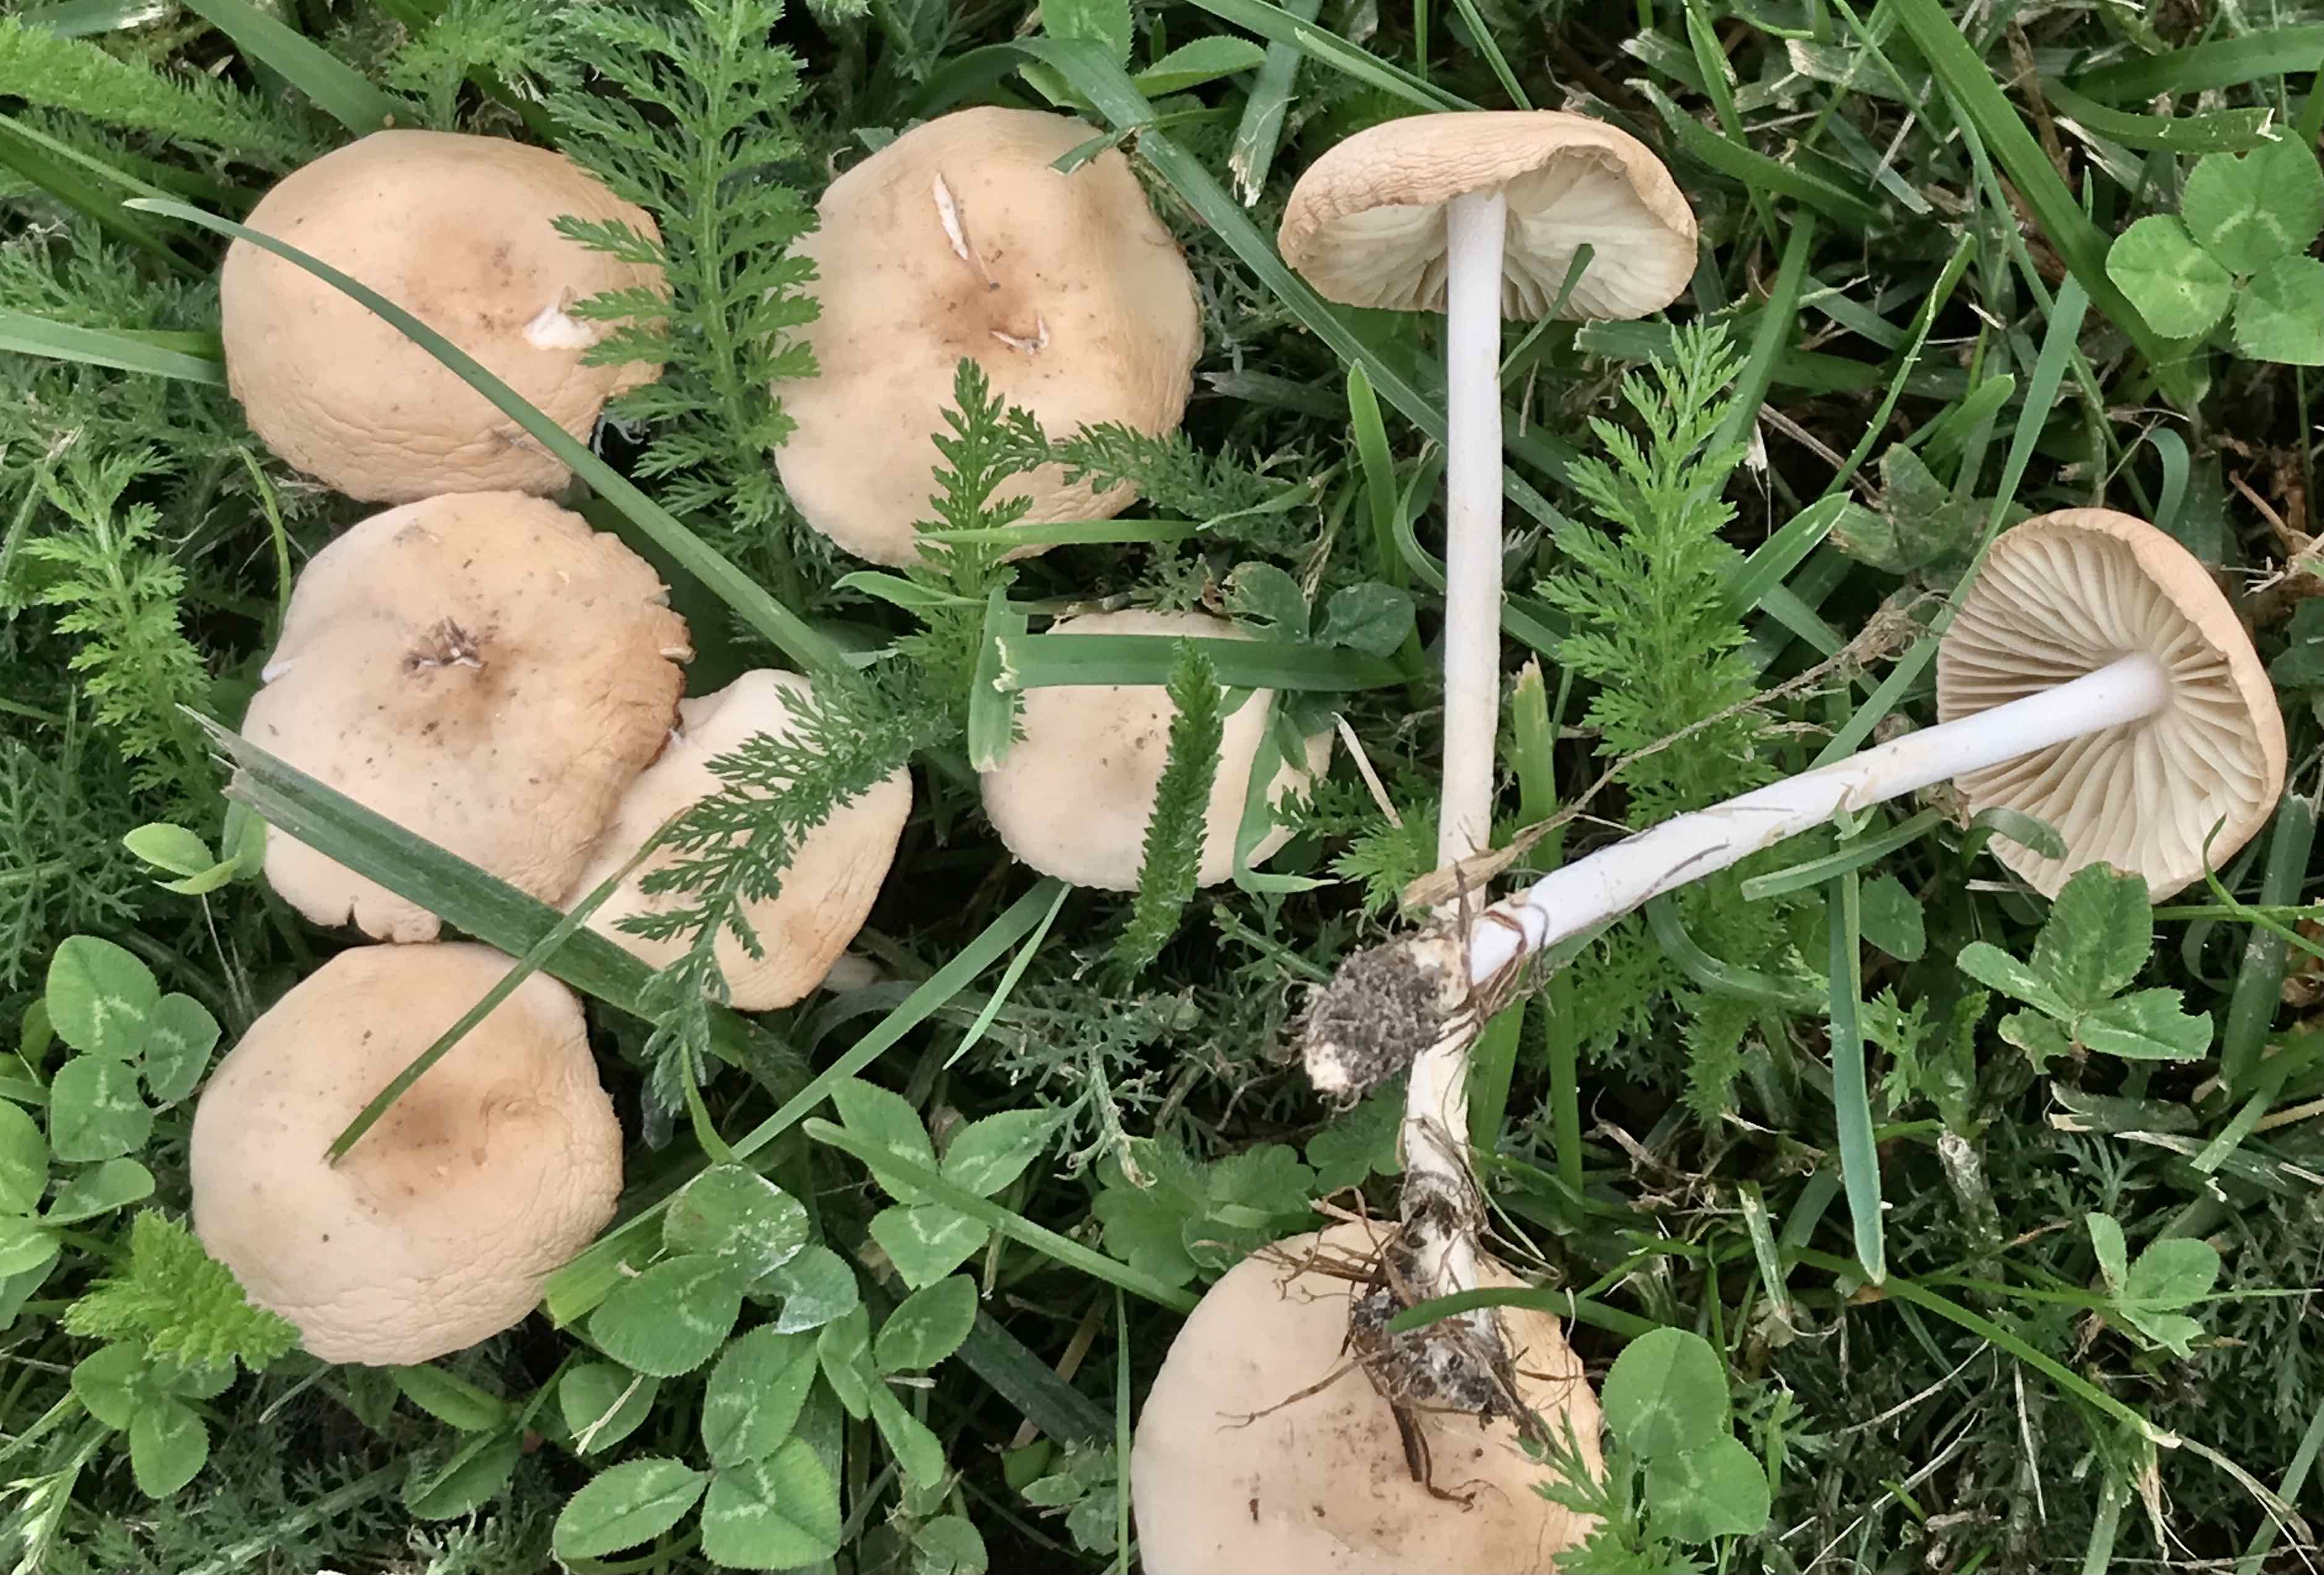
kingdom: Fungi
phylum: Basidiomycota
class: Agaricomycetes
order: Agaricales
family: Marasmiaceae
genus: Marasmius
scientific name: Marasmius oreades
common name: elledans-bruskhat
